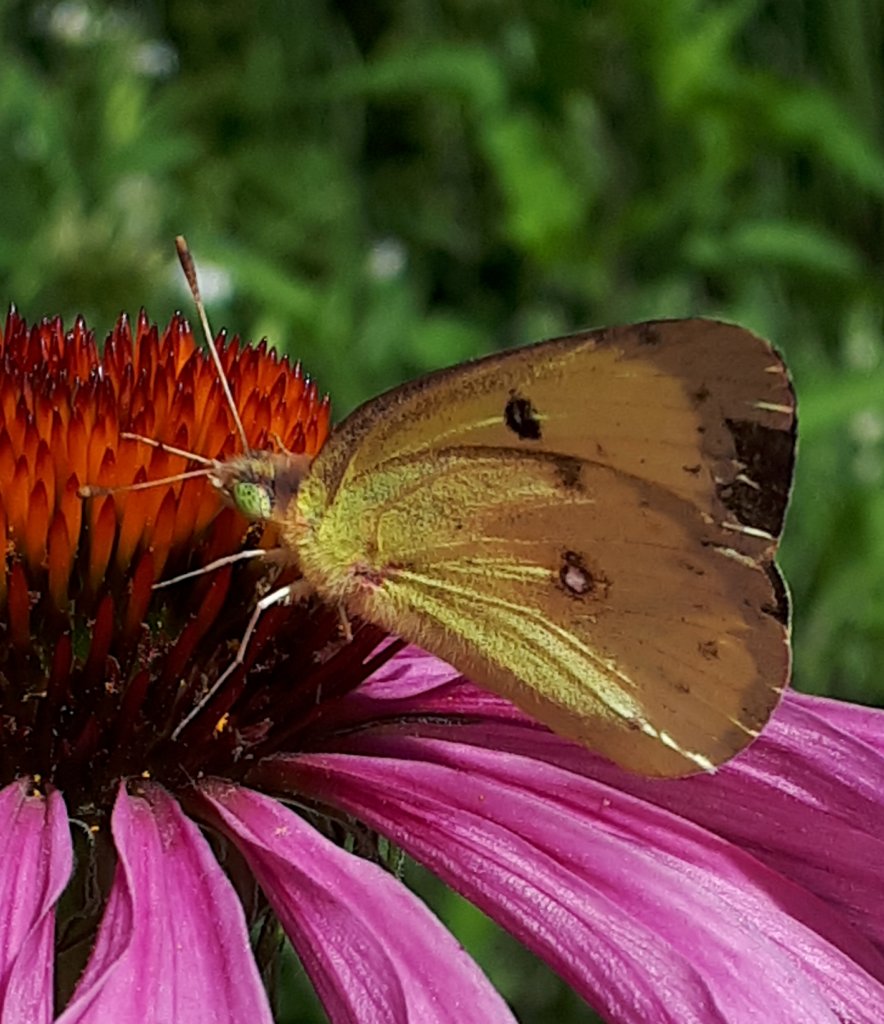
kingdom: Animalia
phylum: Arthropoda
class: Insecta
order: Lepidoptera
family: Pieridae
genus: Colias
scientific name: Colias philodice
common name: Clouded Sulphur
